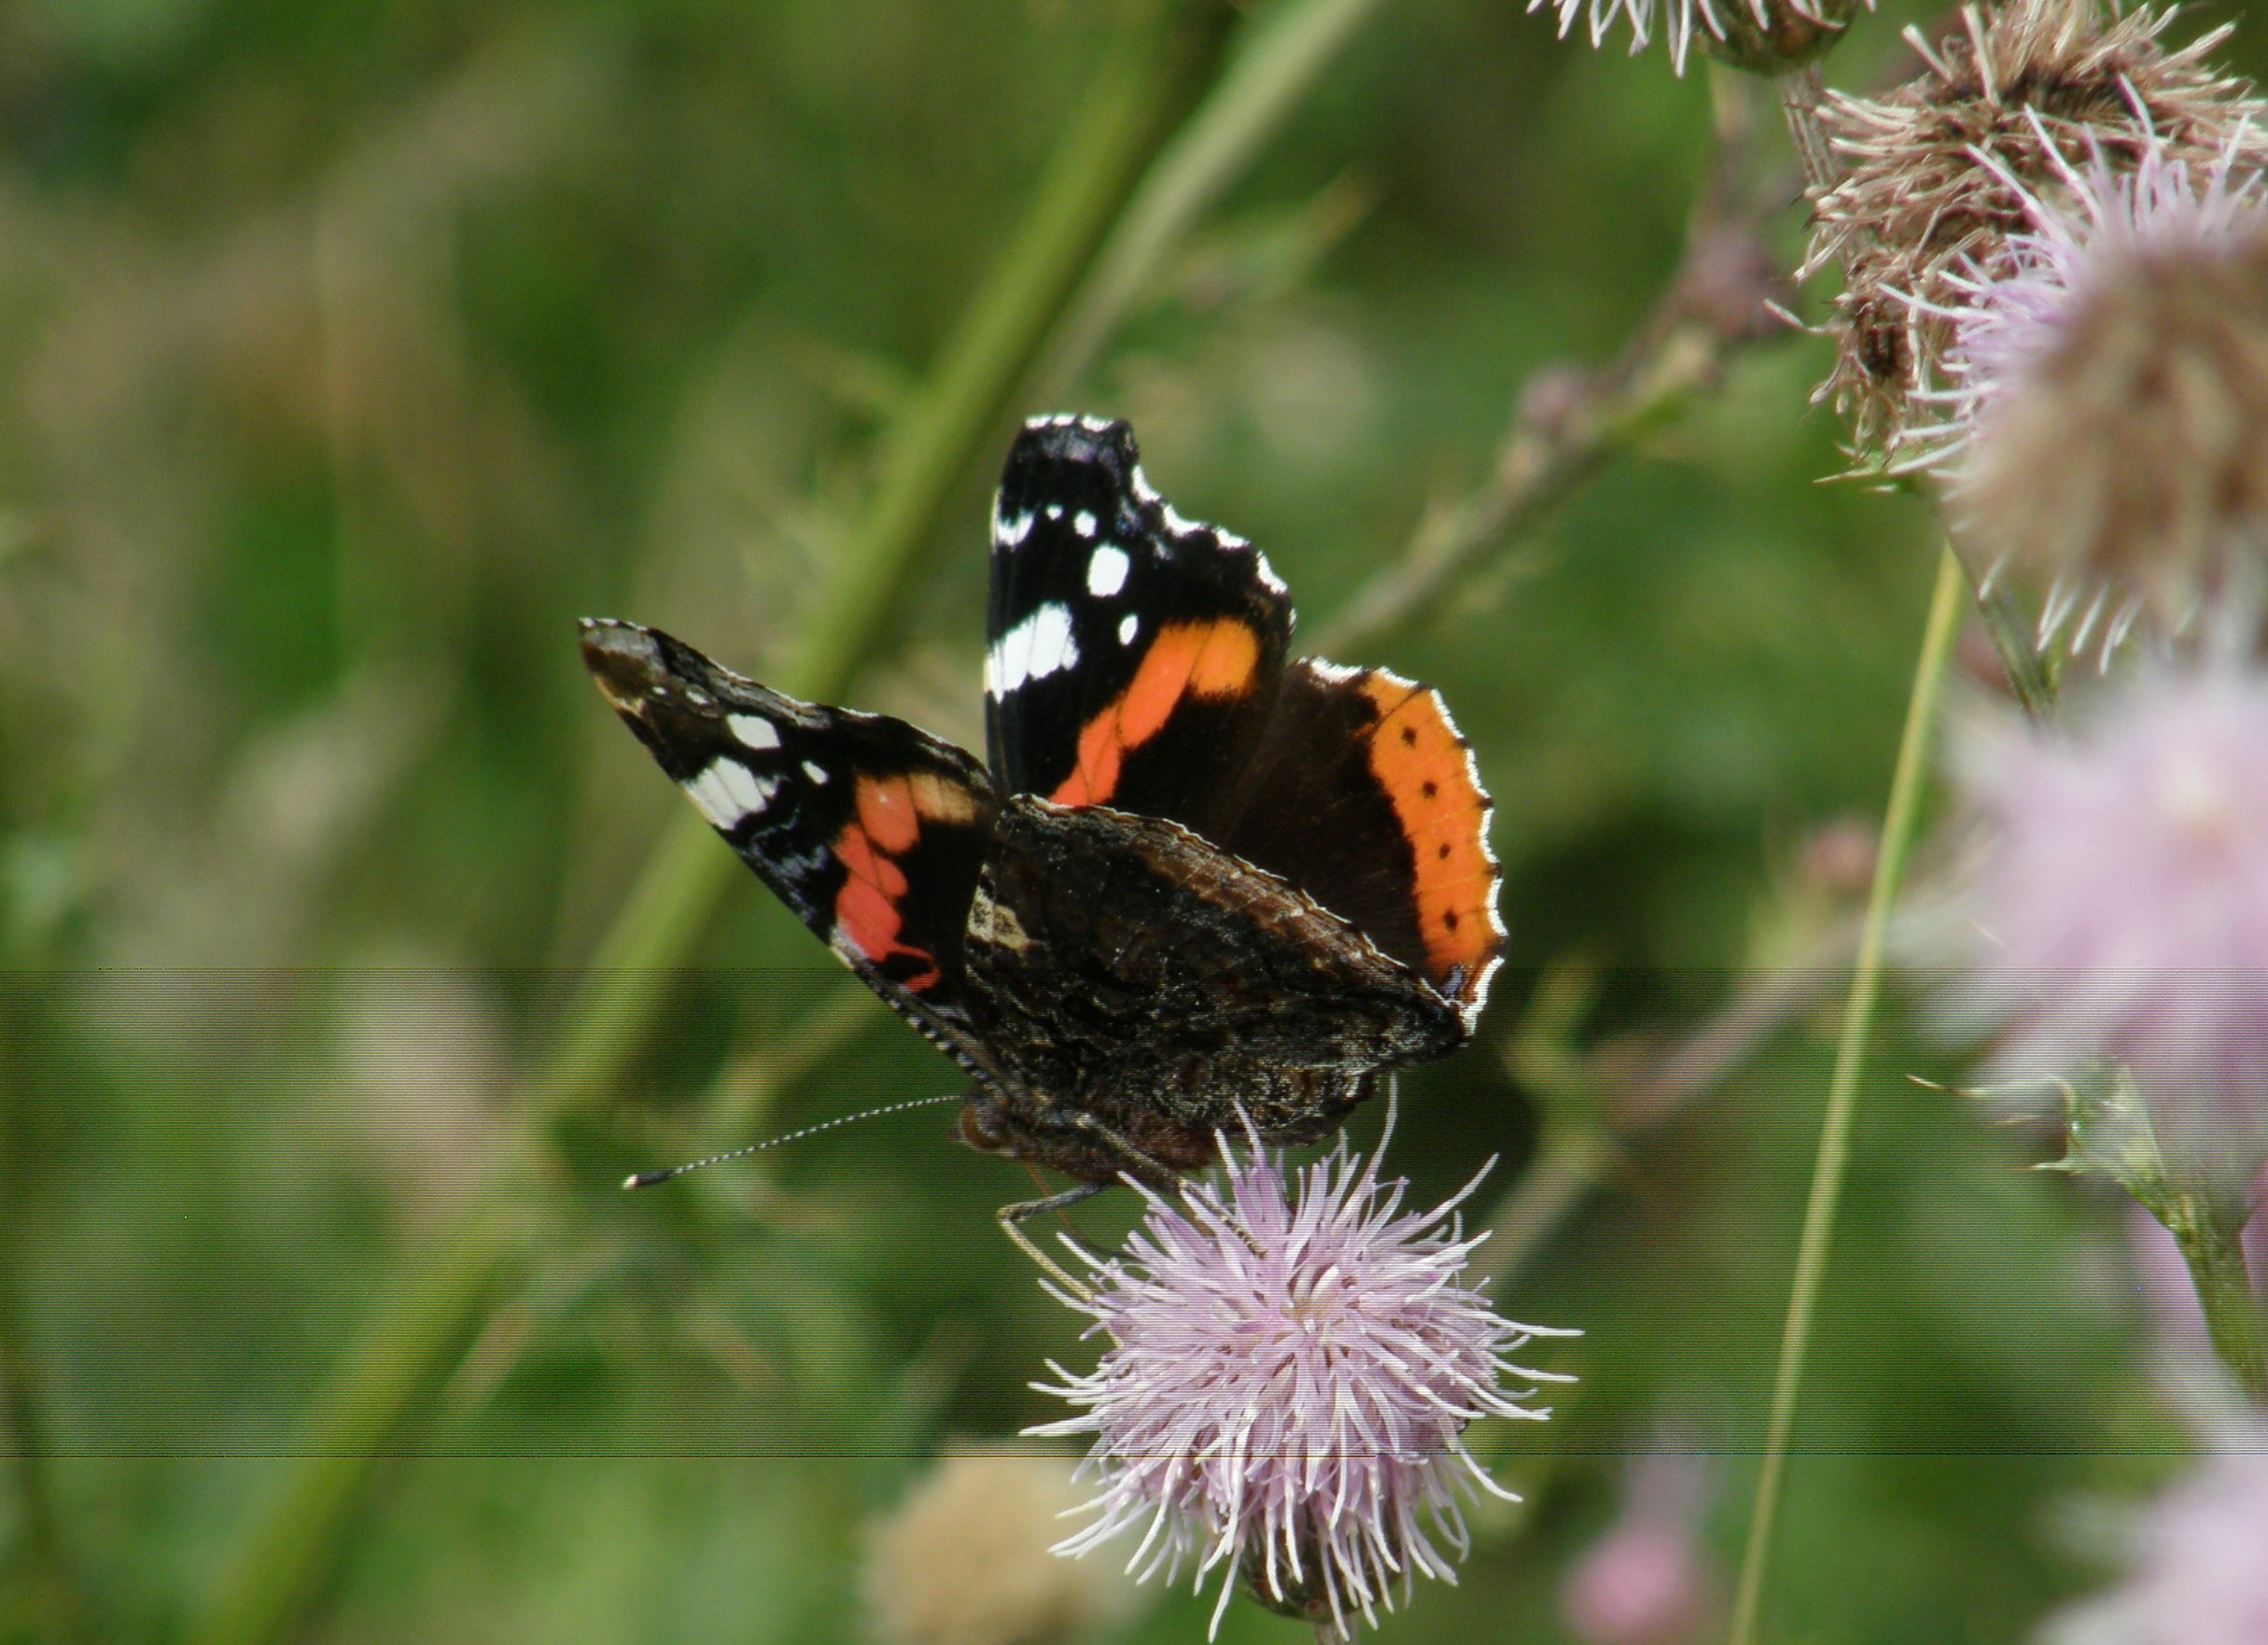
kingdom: Animalia
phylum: Arthropoda
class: Insecta
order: Lepidoptera
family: Nymphalidae
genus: Vanessa
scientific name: Vanessa atalanta
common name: Admiral
